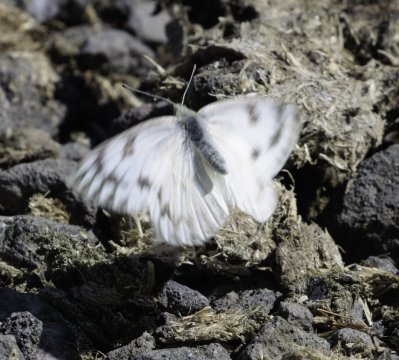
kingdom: Animalia
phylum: Arthropoda
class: Insecta
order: Lepidoptera
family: Pieridae
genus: Pontia
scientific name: Pontia occidentalis
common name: Western White
